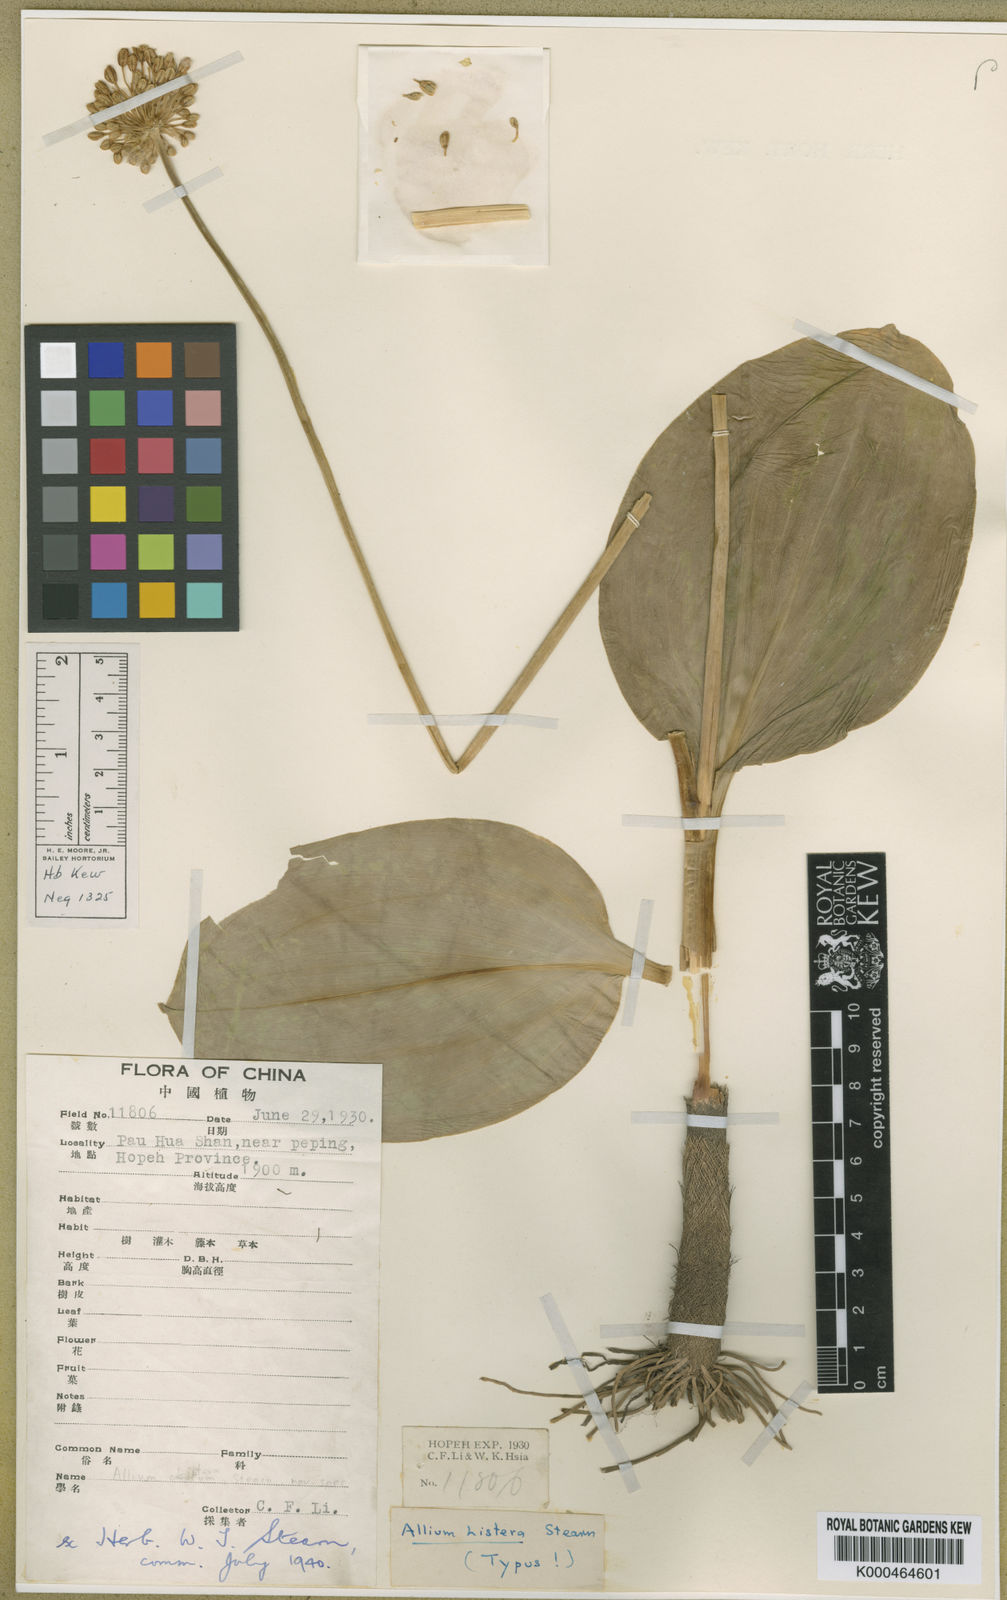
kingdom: Plantae
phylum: Tracheophyta
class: Liliopsida
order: Asparagales
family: Amaryllidaceae
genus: Allium
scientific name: Allium listera
